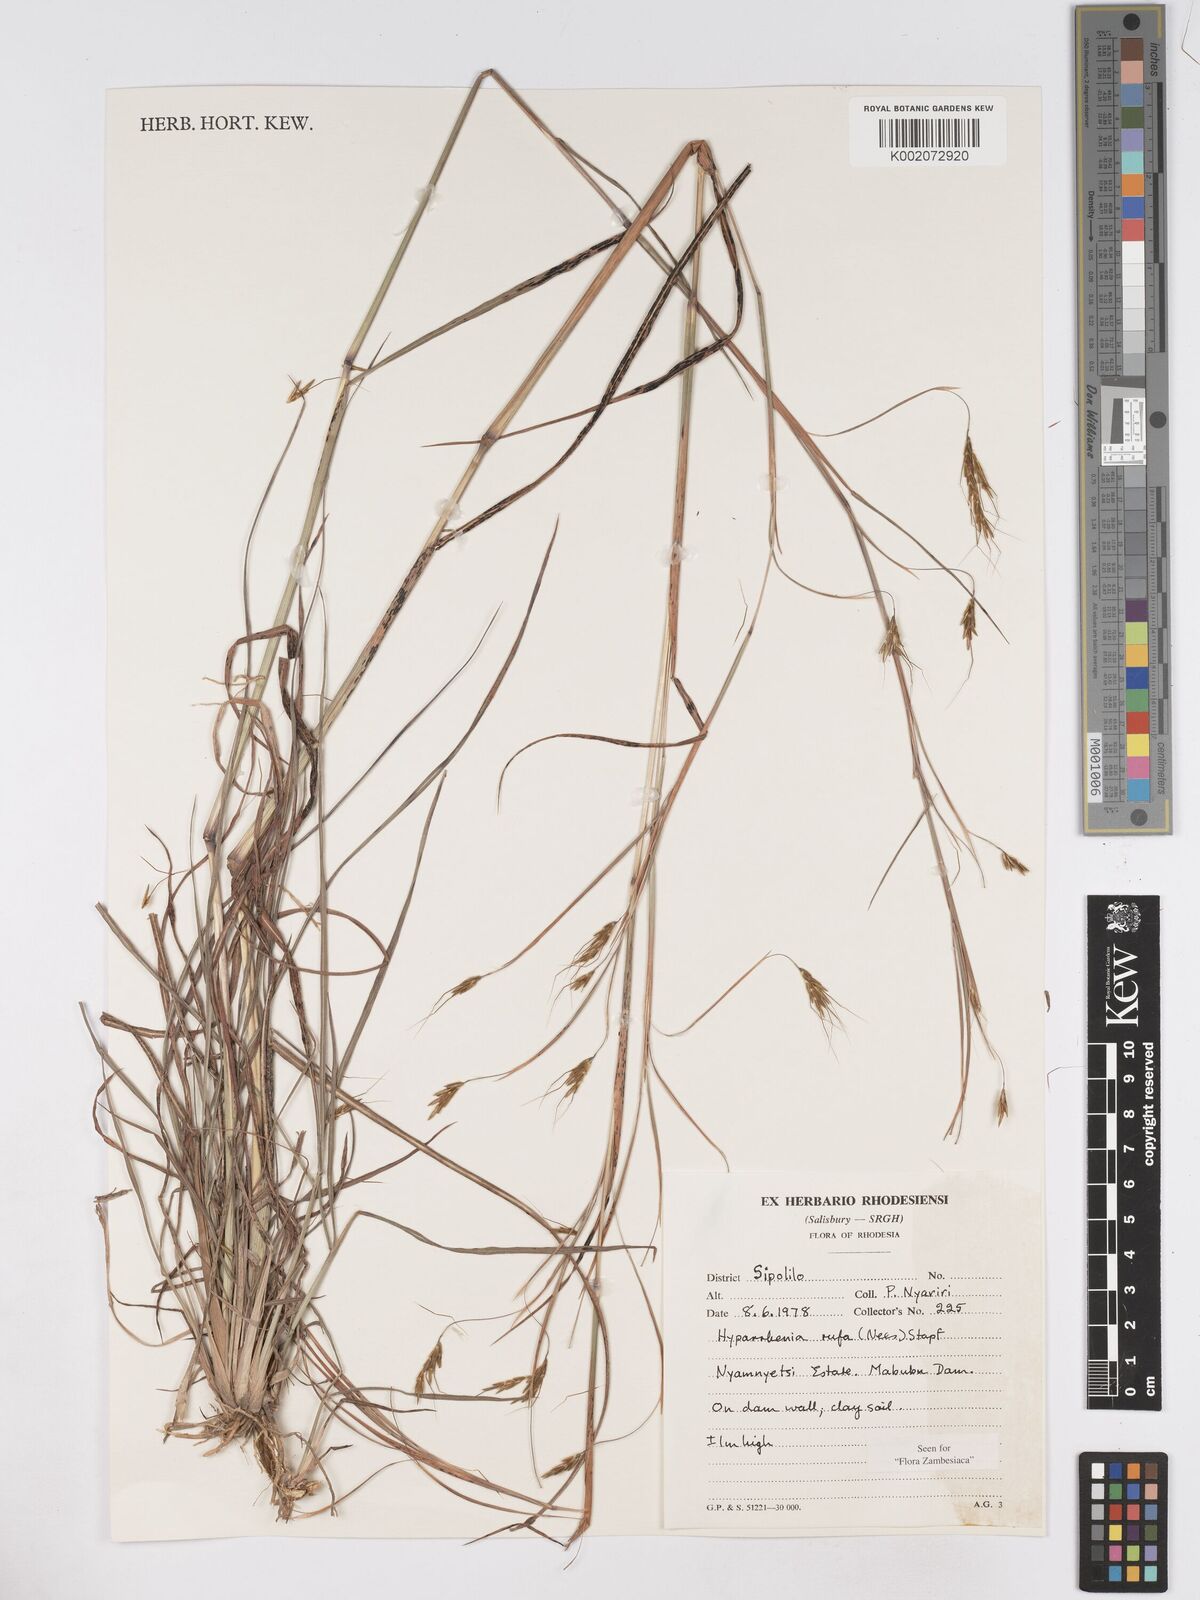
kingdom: Plantae
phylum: Tracheophyta
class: Liliopsida
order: Poales
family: Poaceae
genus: Hyparrhenia
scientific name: Hyparrhenia rufa
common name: Jaraguagrass
